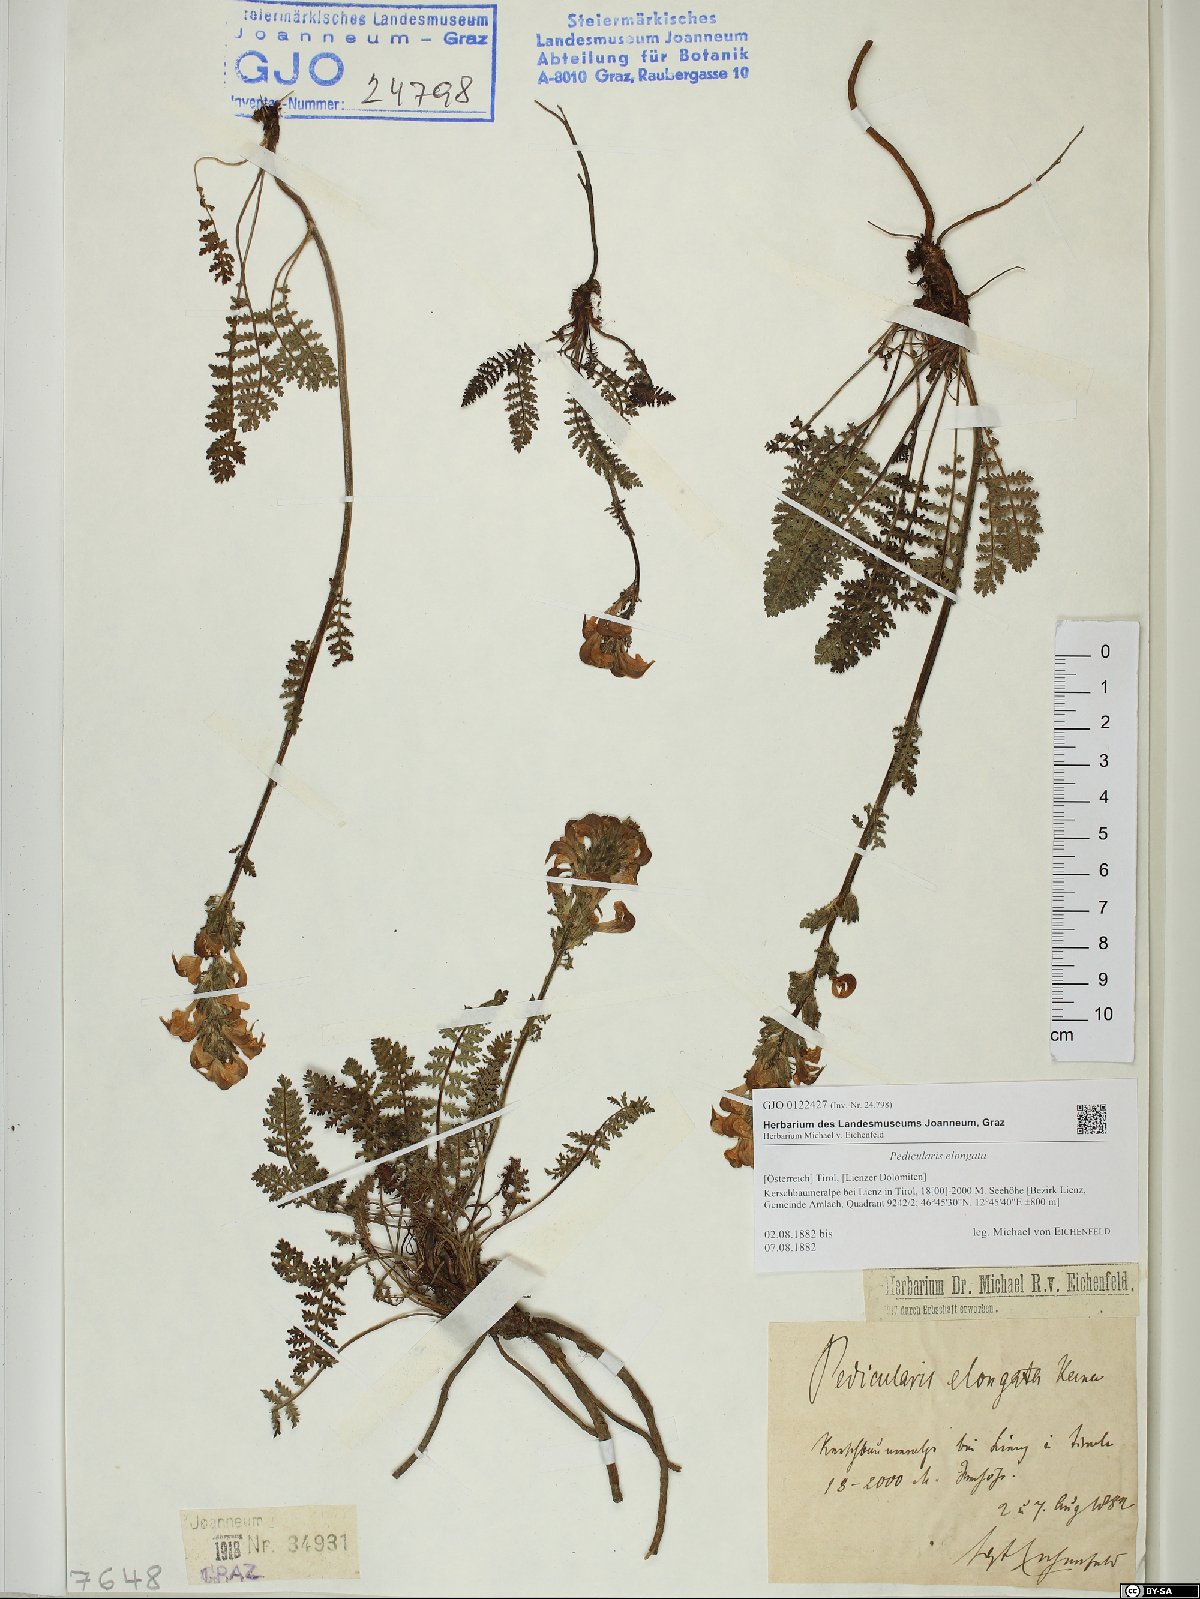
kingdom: Plantae
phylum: Tracheophyta
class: Magnoliopsida
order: Lamiales
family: Orobanchaceae
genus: Pedicularis
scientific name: Pedicularis elongata
